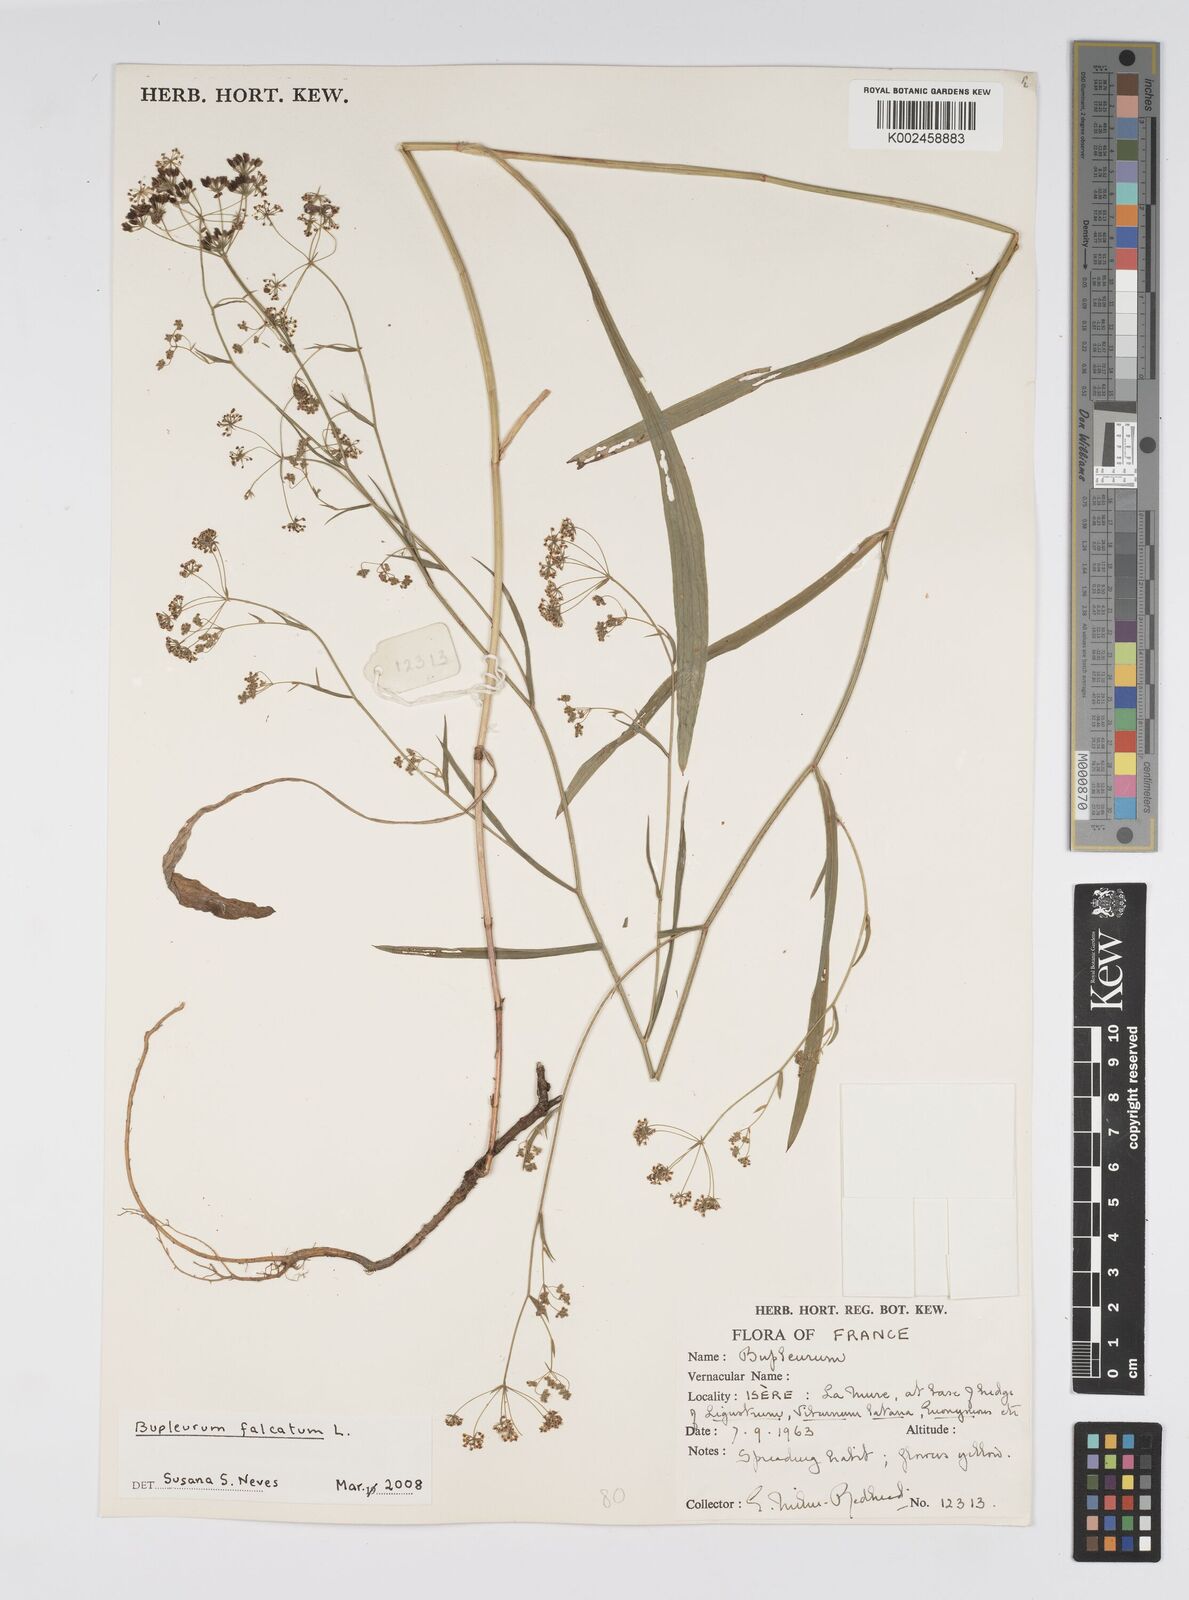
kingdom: Plantae
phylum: Tracheophyta
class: Magnoliopsida
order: Apiales
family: Apiaceae
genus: Bupleurum
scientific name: Bupleurum falcatum
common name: Sickle-leaved hare's-ear
